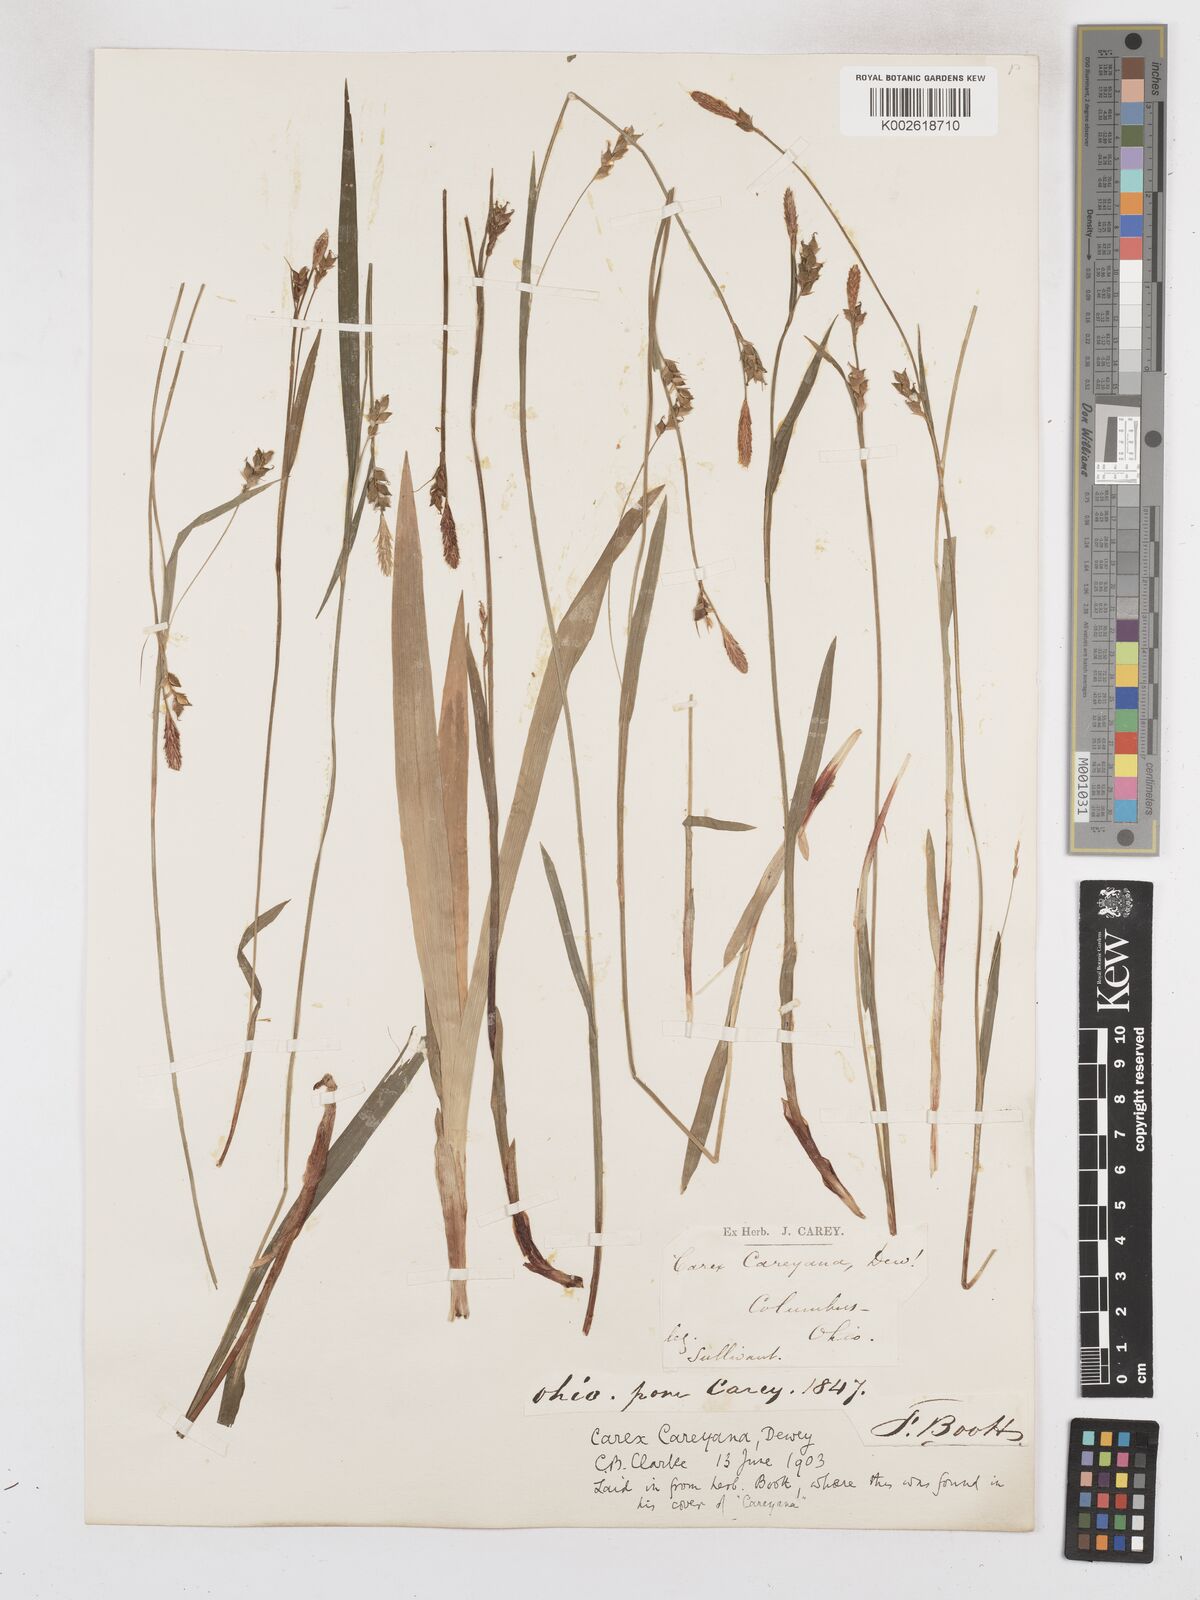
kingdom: Plantae
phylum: Tracheophyta
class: Liliopsida
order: Poales
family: Cyperaceae
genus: Carex
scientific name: Carex careyana
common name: Carey's sedge
